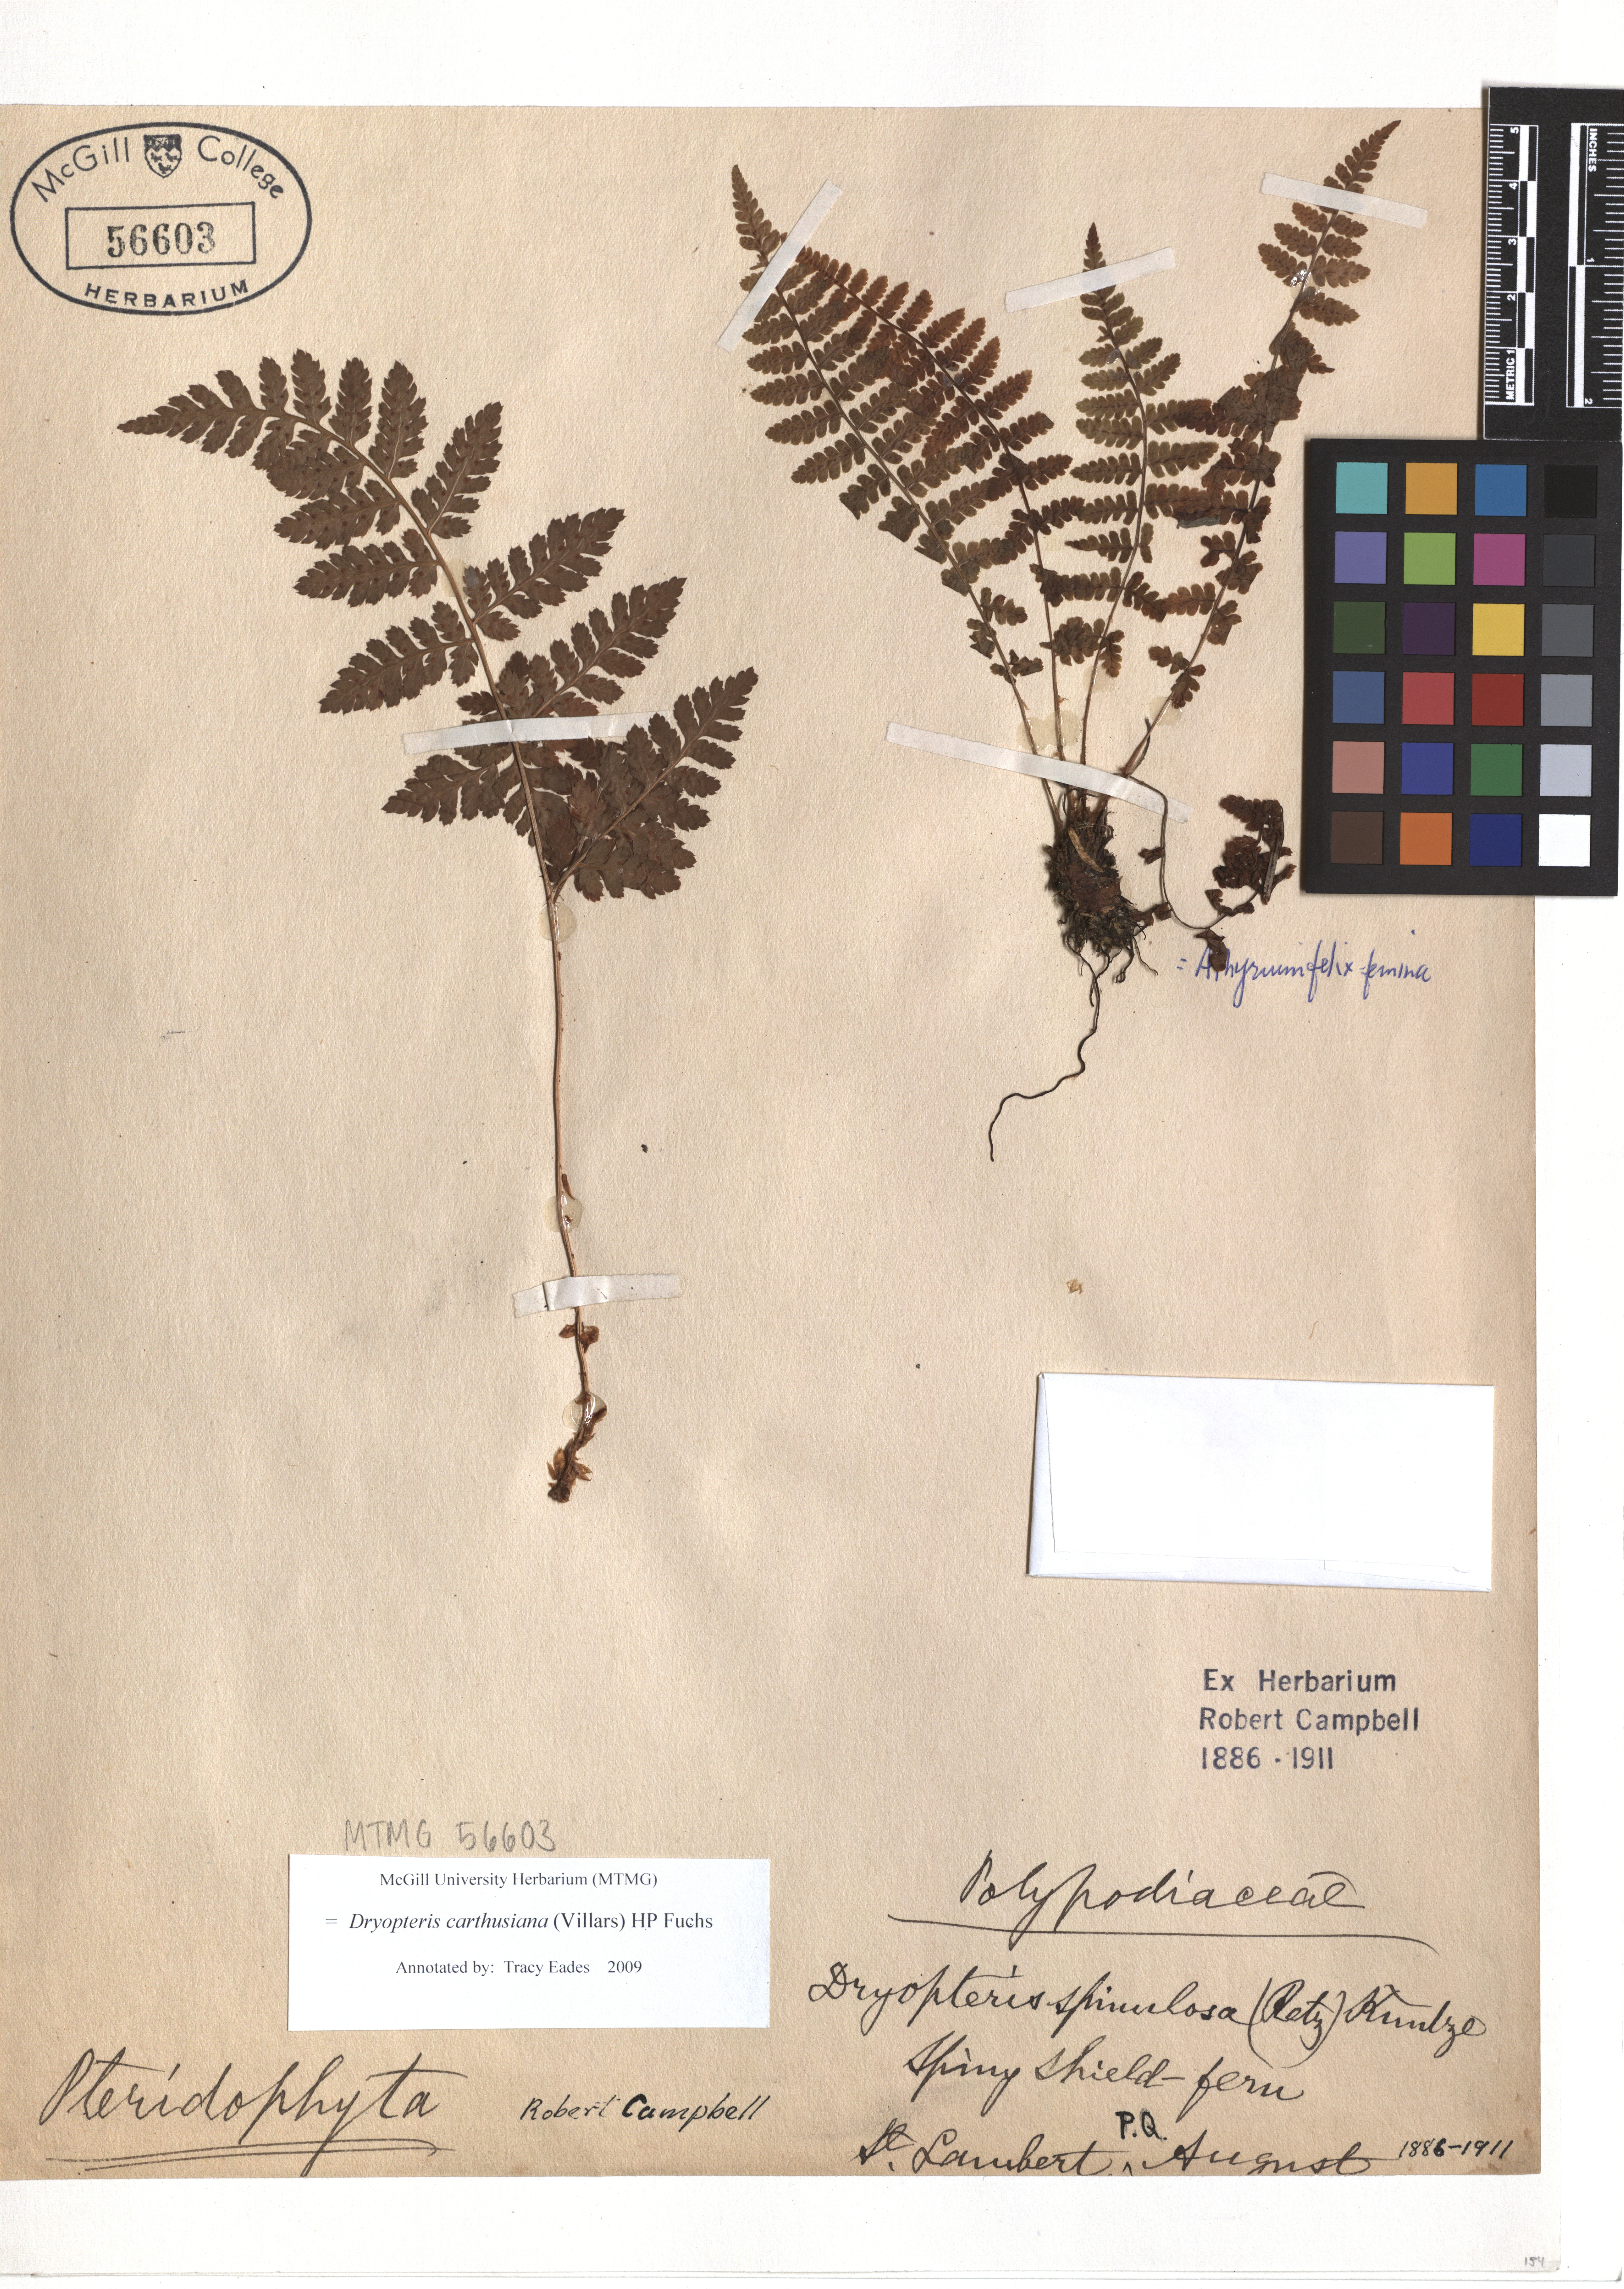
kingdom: Plantae
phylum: Tracheophyta
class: Polypodiopsida
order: Polypodiales
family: Dryopteridaceae
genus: Dryopteris
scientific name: Dryopteris carthusiana
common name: Narrow buckler-fern
